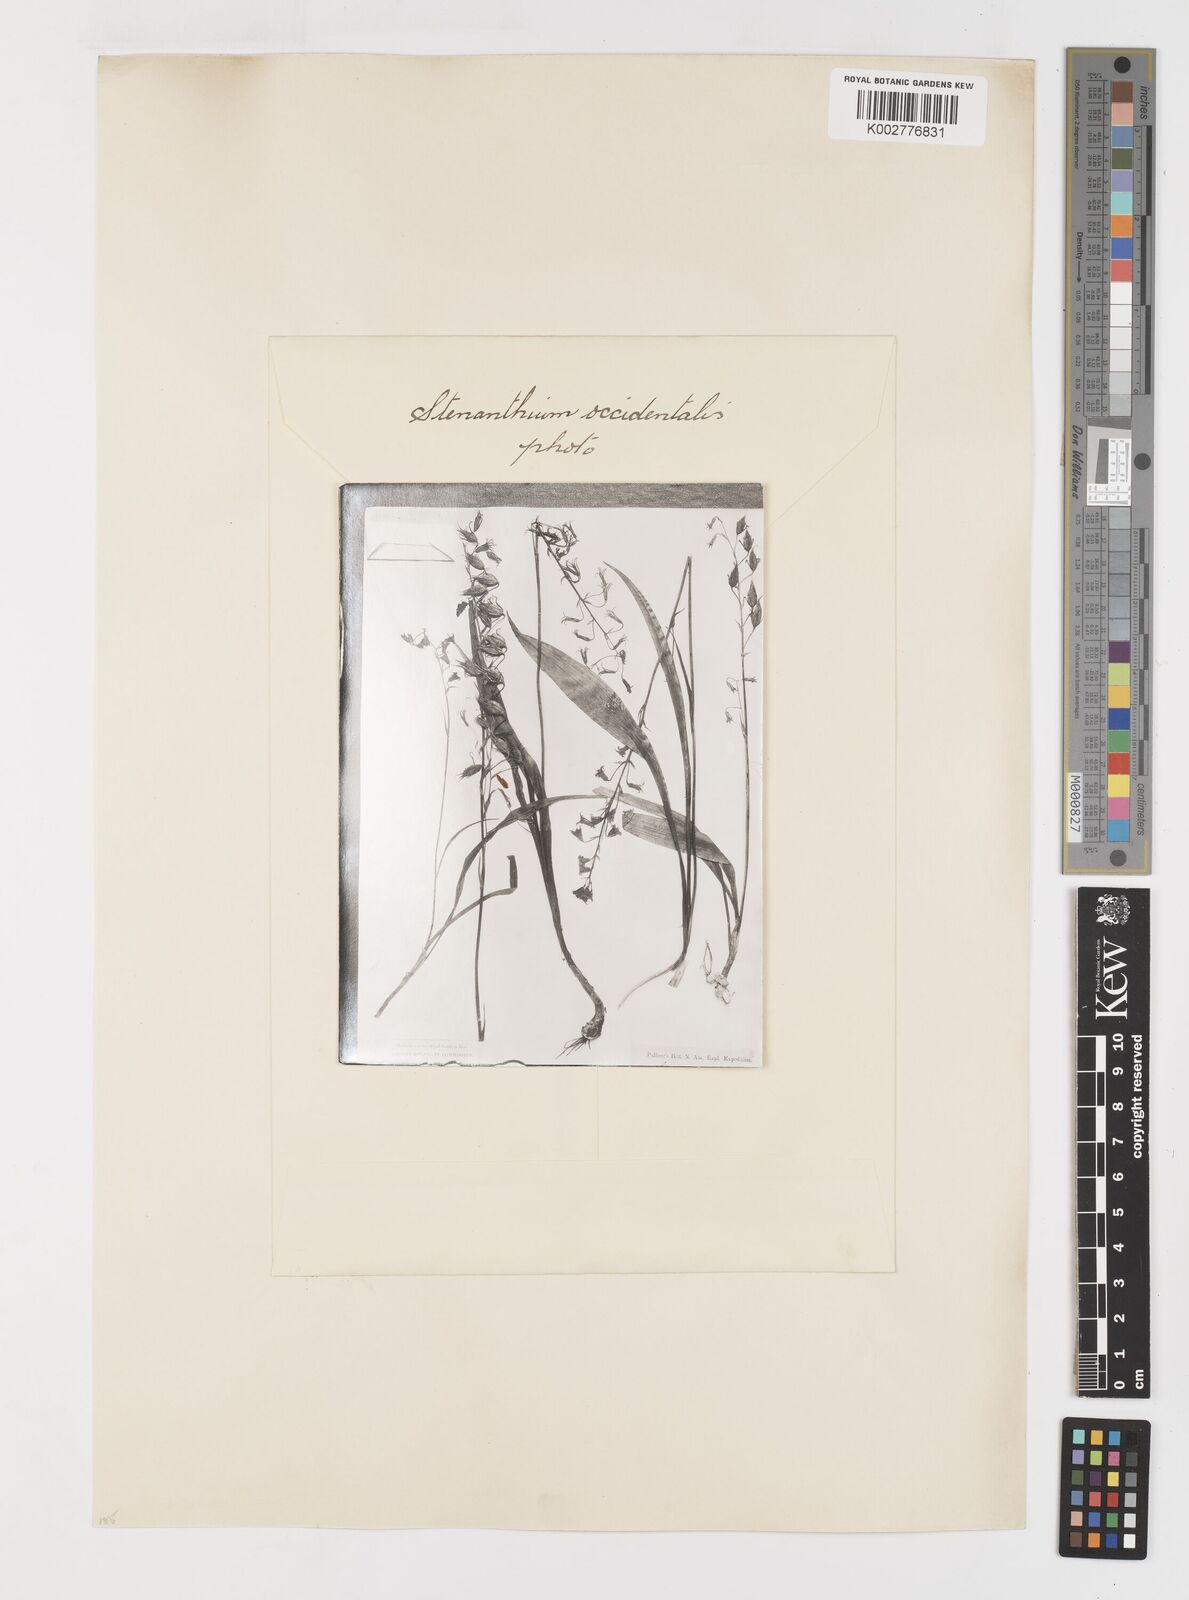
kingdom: Plantae
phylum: Tracheophyta
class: Liliopsida
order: Liliales
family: Melanthiaceae
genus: Anticlea
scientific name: Anticlea occidentalis
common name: Bronze-bells
